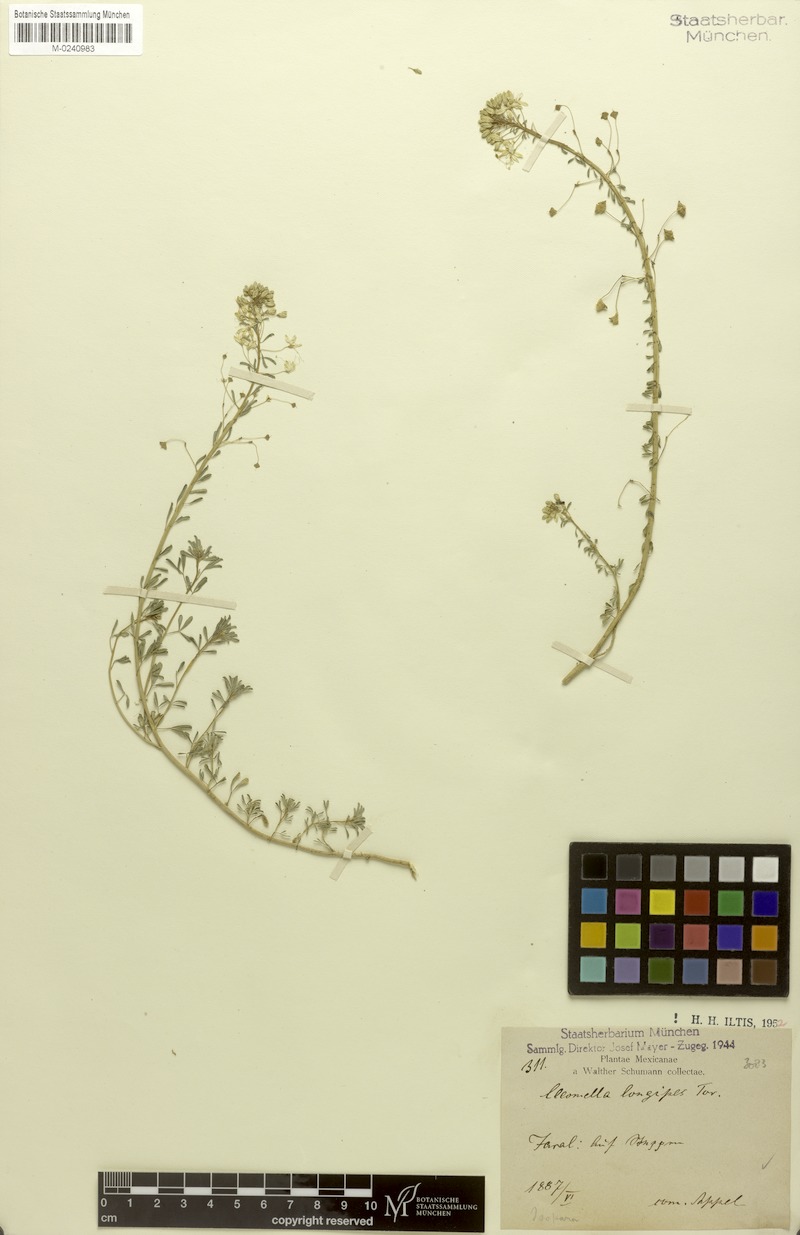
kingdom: Plantae
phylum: Tracheophyta
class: Magnoliopsida
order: Brassicales
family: Cleomaceae
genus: Cleomella
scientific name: Cleomella perennis
